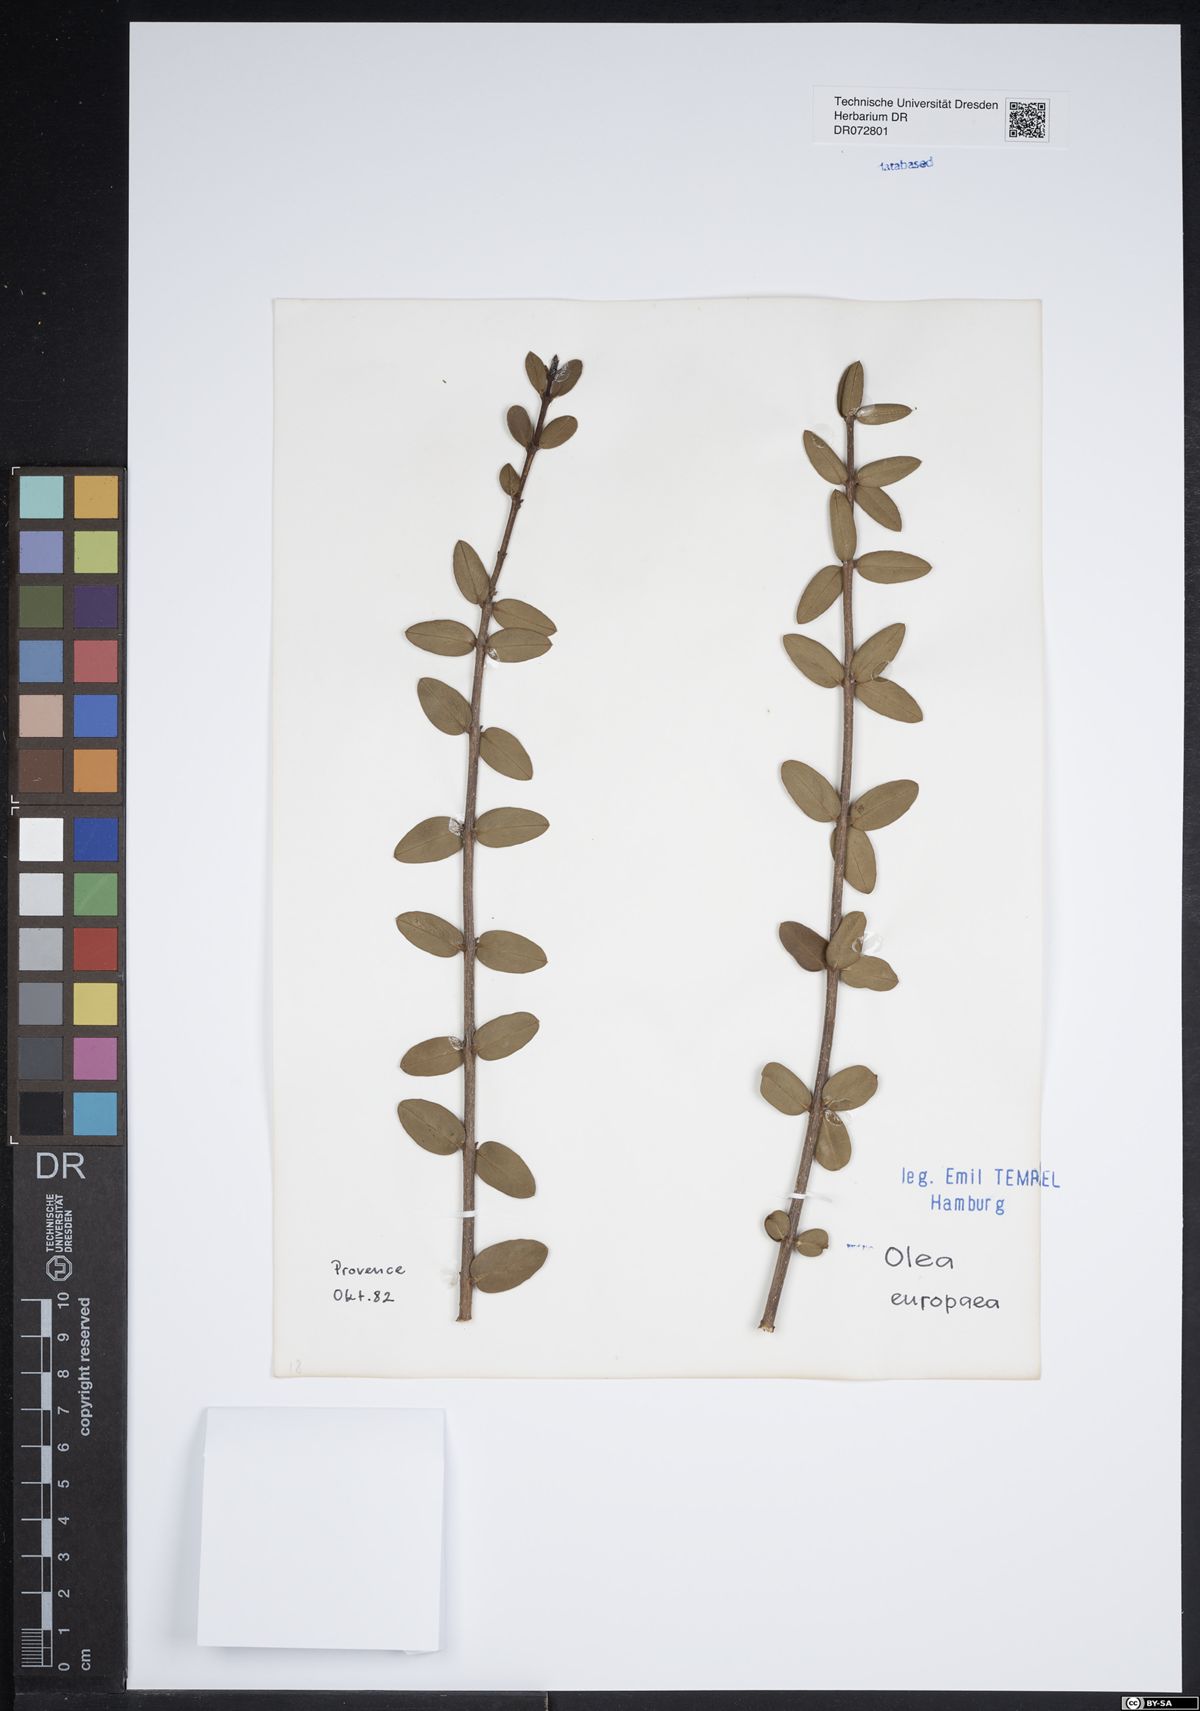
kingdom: Plantae
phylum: Tracheophyta
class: Magnoliopsida
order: Lamiales
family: Oleaceae
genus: Olea
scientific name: Olea europaea
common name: Olive
